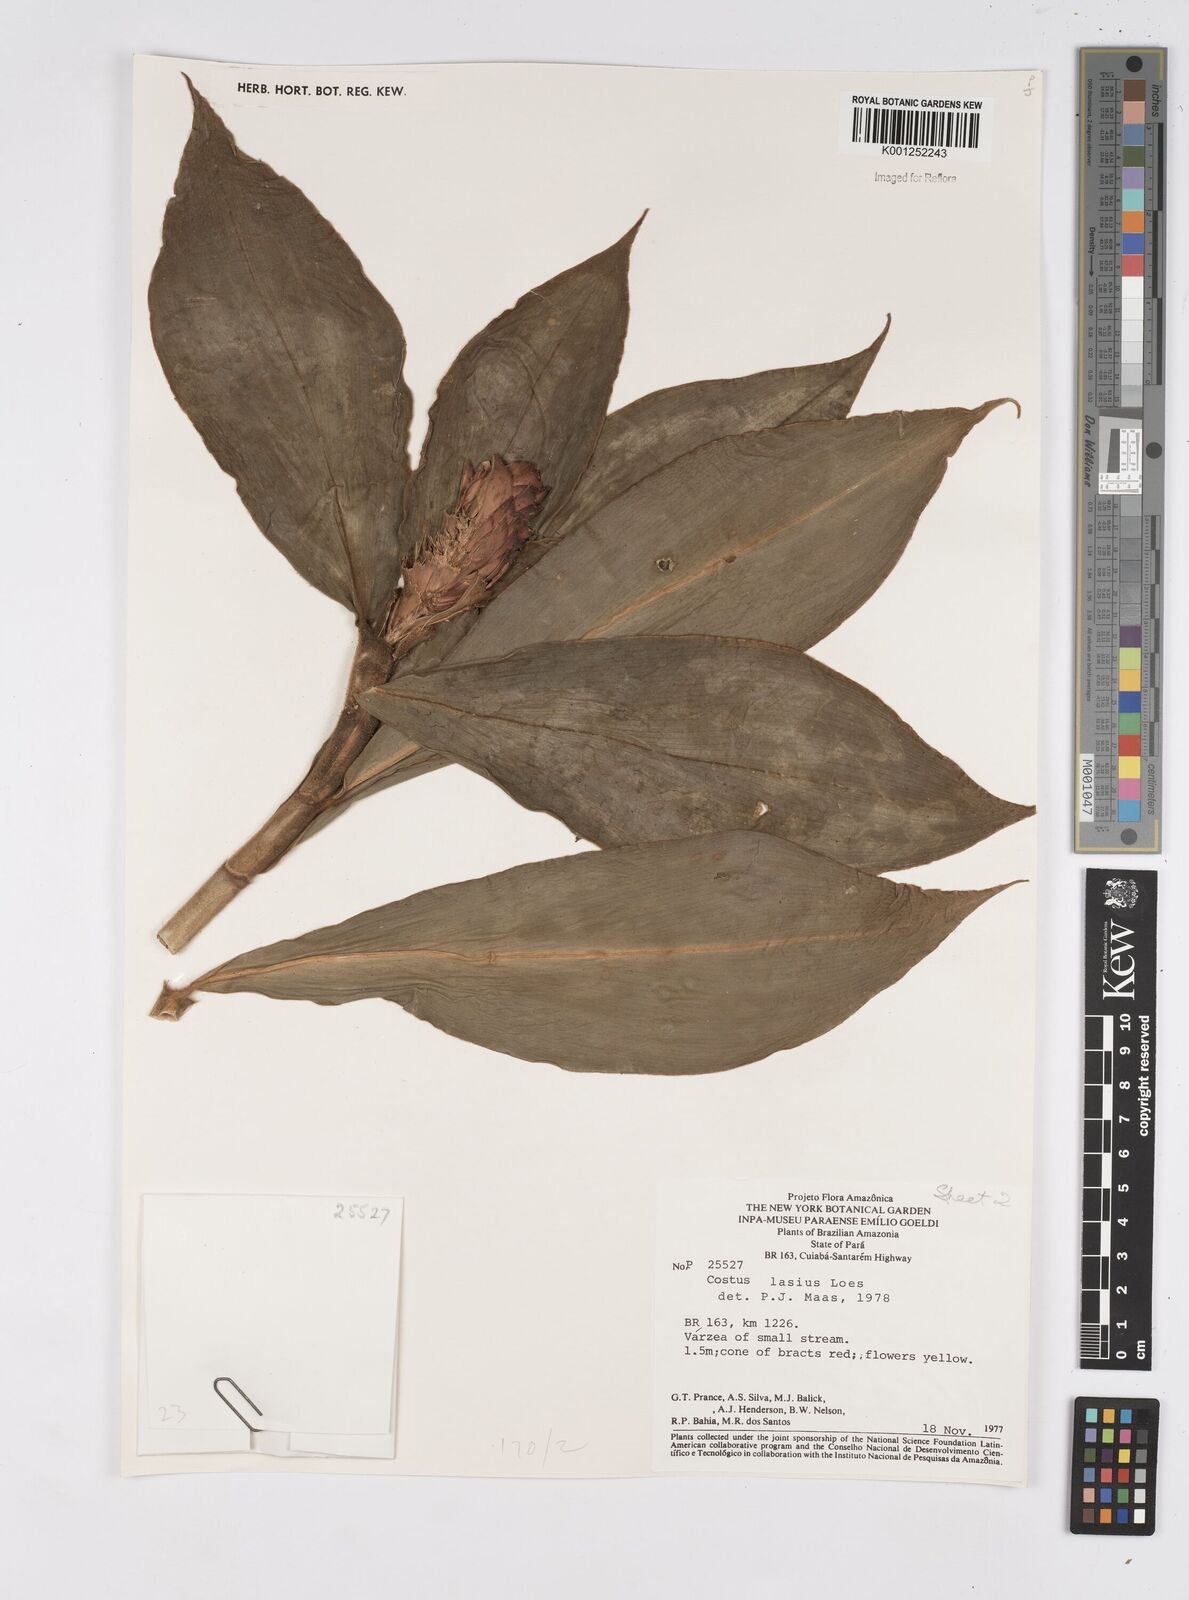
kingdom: Plantae
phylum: Tracheophyta
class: Liliopsida
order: Zingiberales
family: Costaceae
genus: Costus
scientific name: Costus lasius
